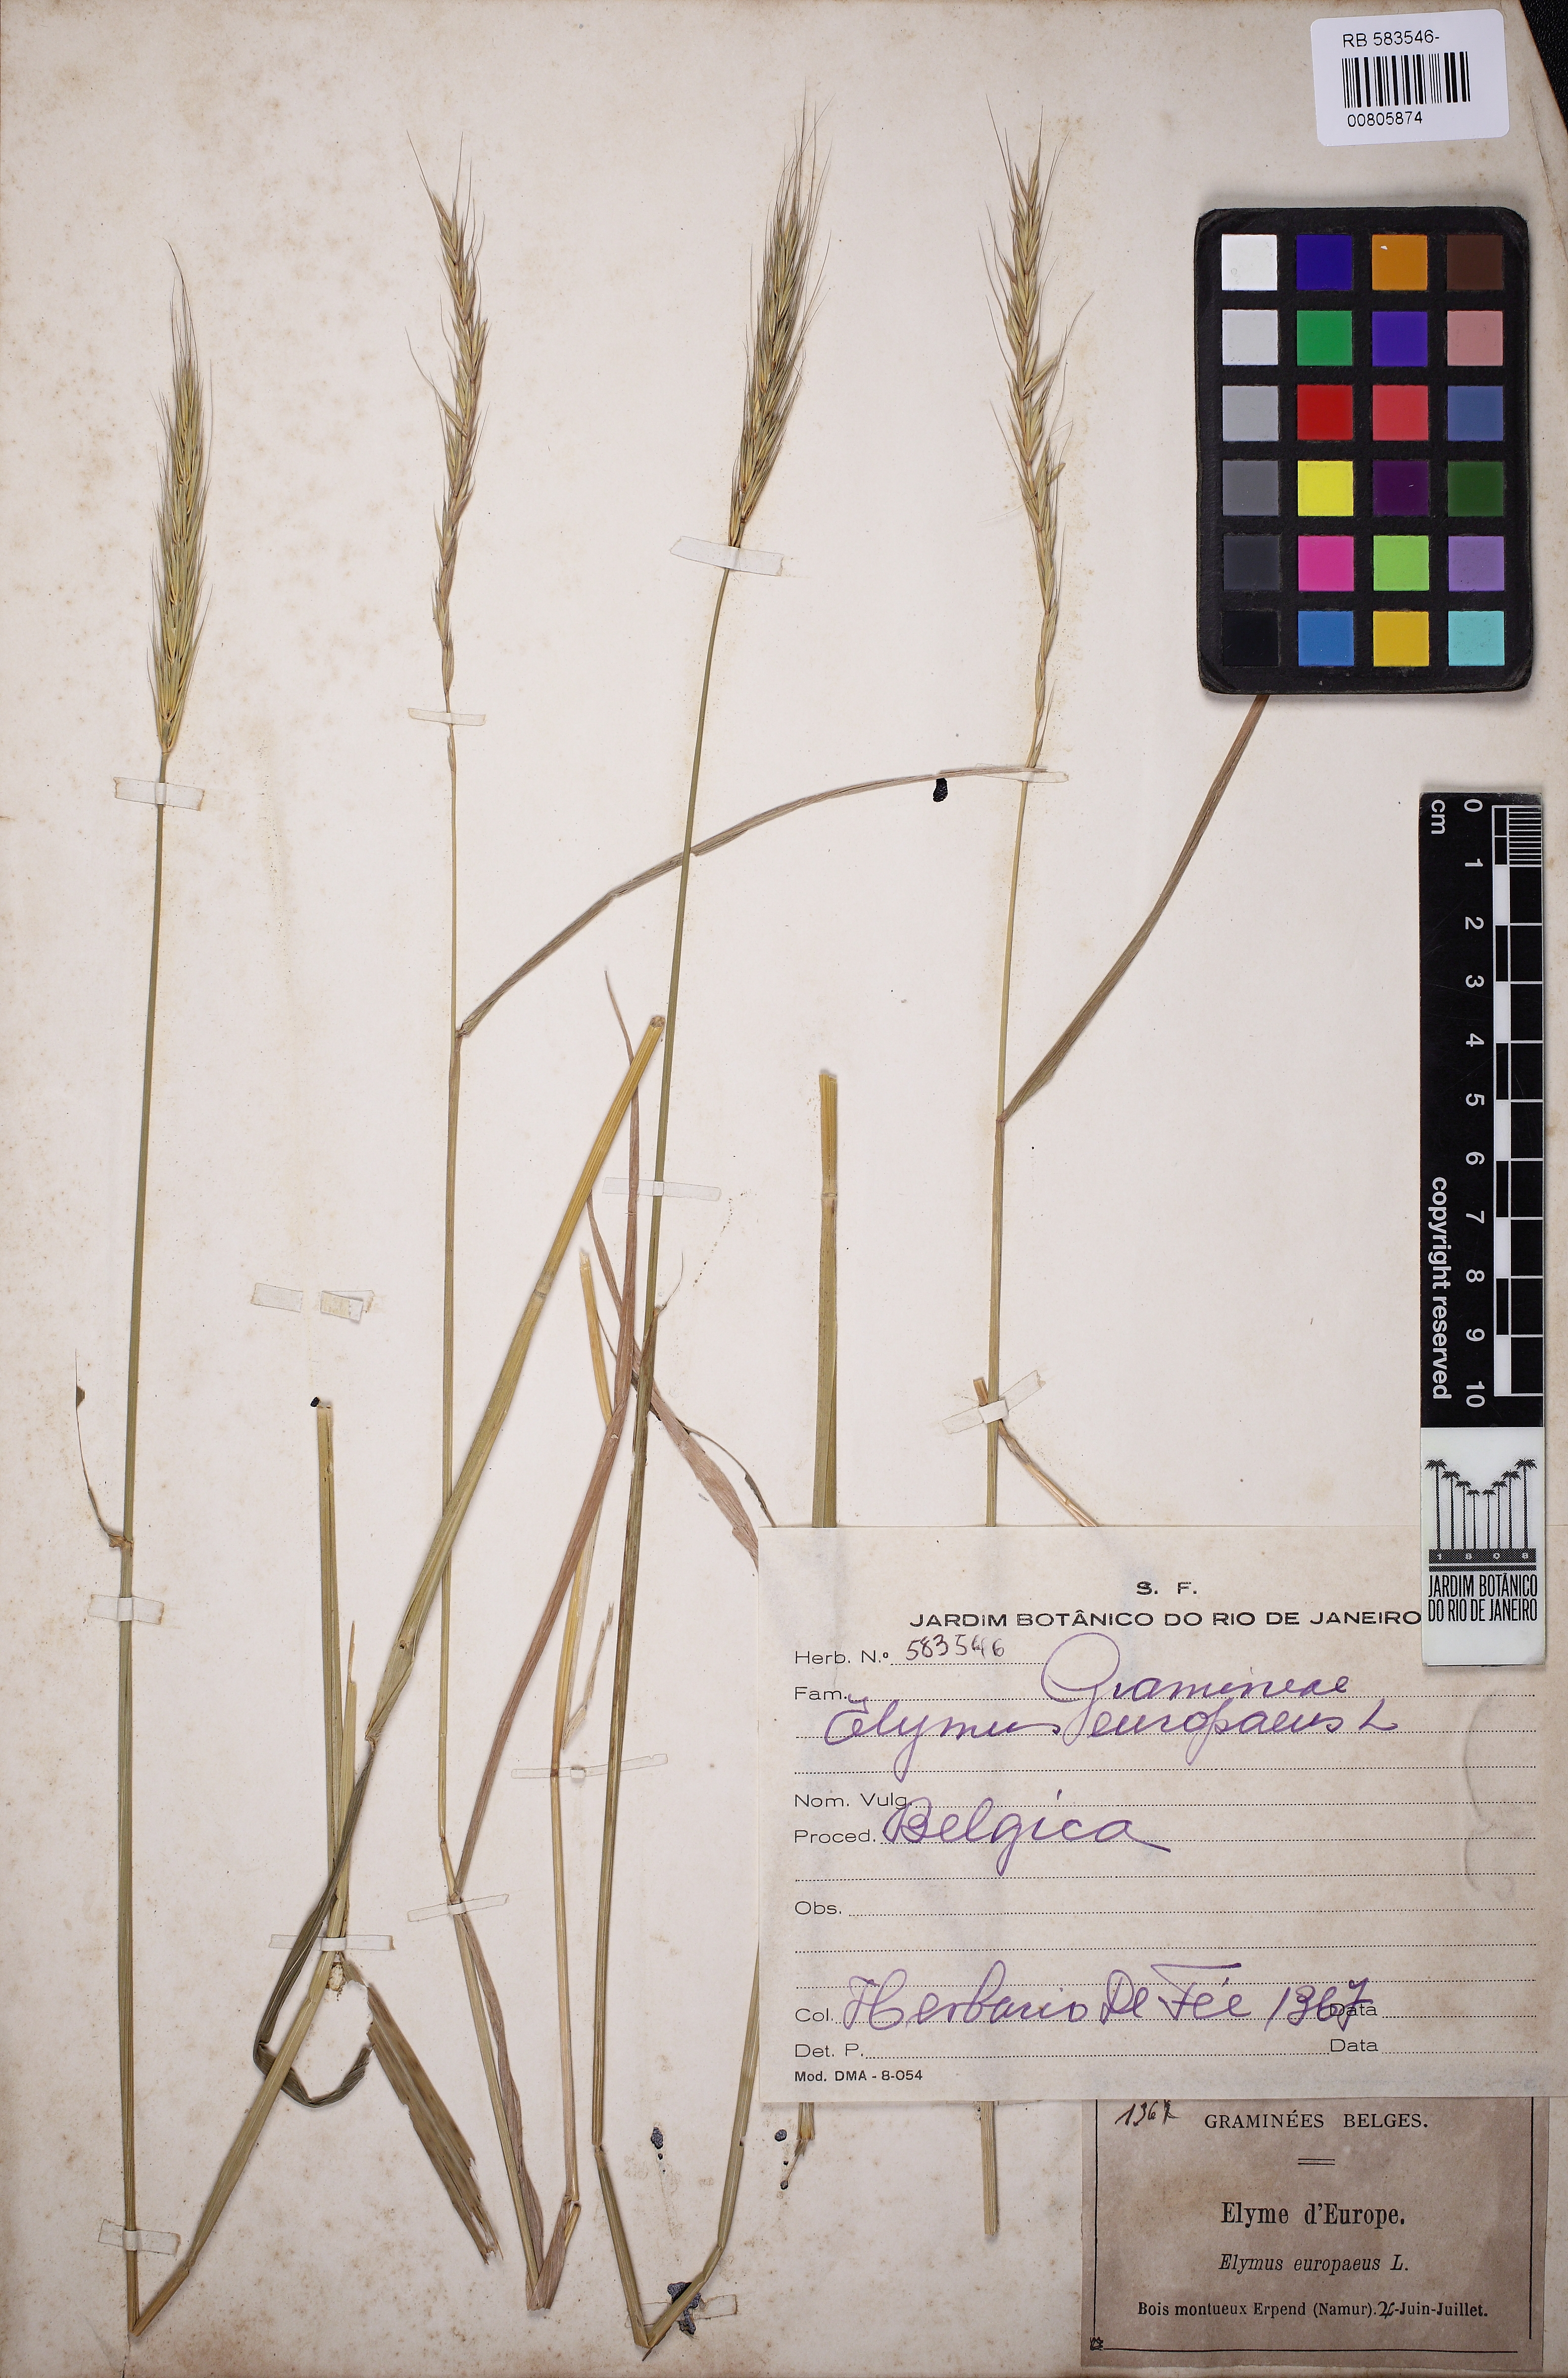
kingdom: Plantae
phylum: Tracheophyta
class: Liliopsida
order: Poales
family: Poaceae
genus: Hordelymus
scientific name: Hordelymus europaeus
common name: Wood-barley
